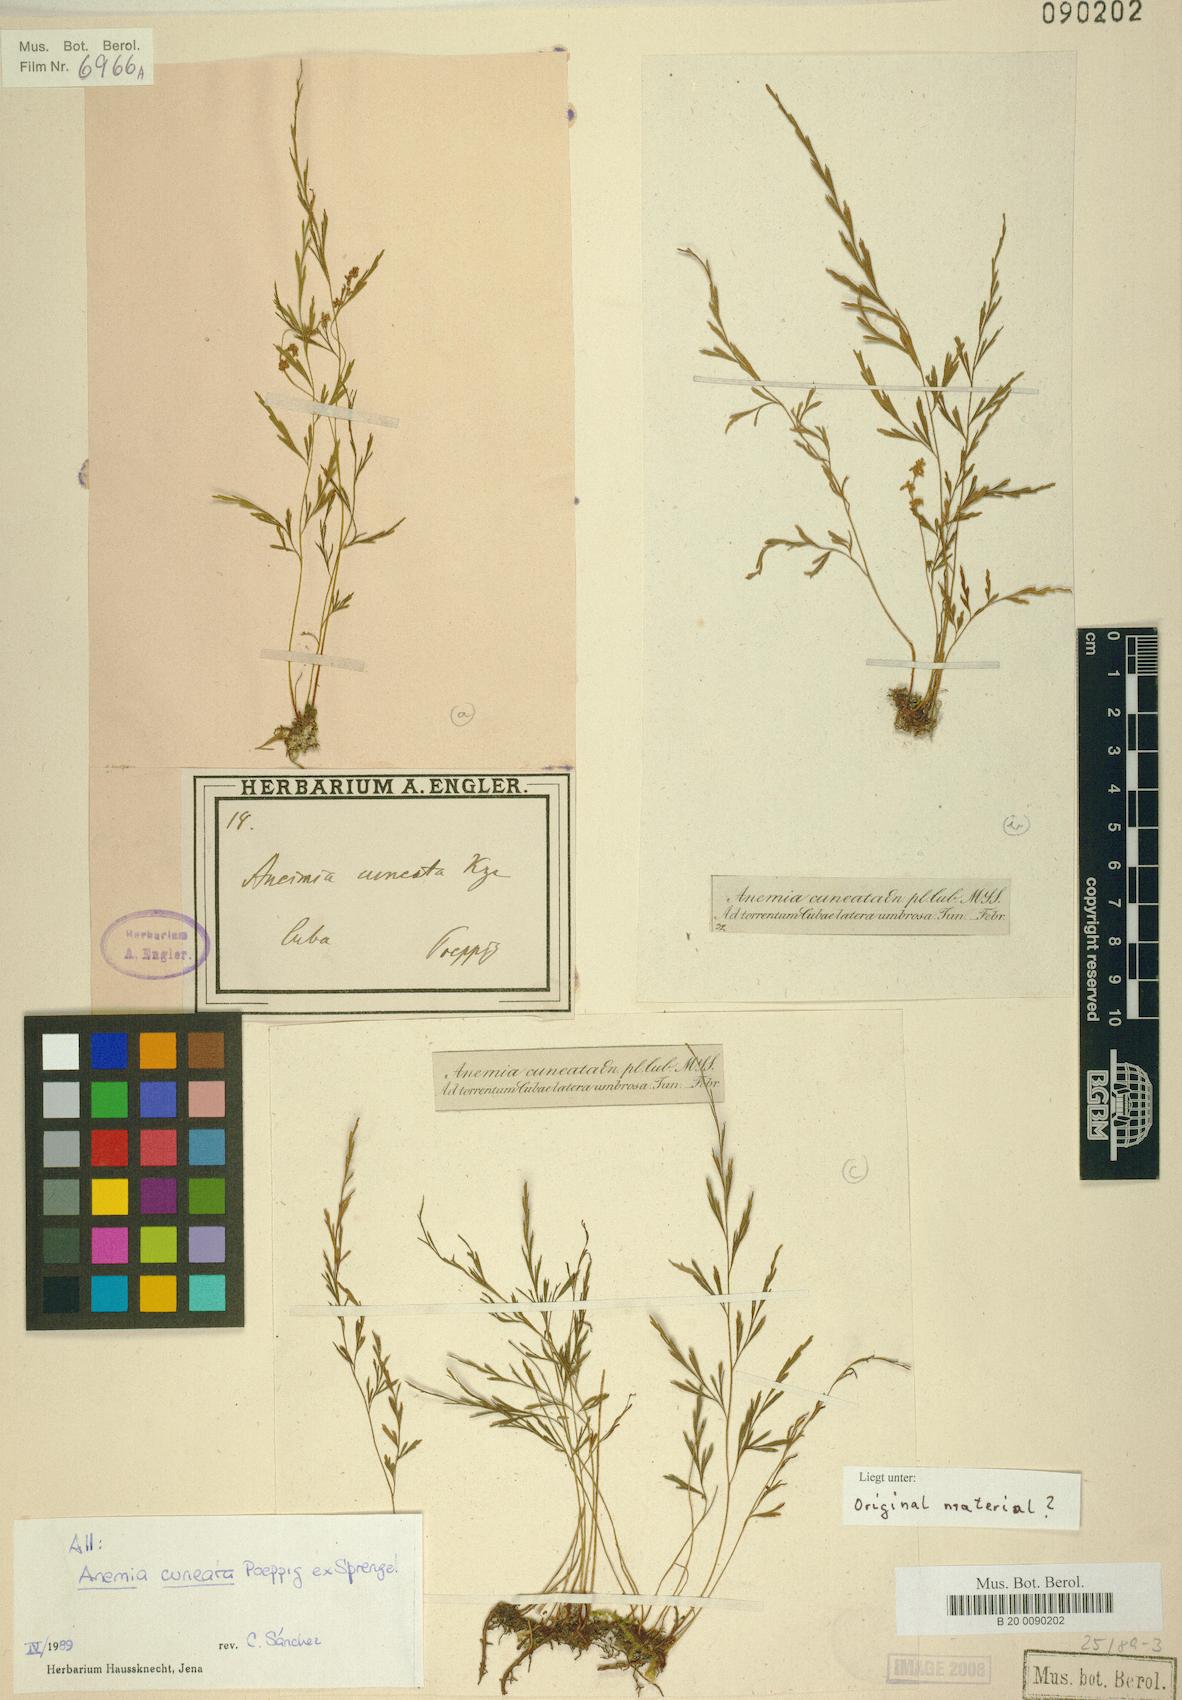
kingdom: Plantae
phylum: Tracheophyta
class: Polypodiopsida
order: Schizaeales
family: Anemiaceae
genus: Anemia
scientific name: Anemia cuneata
